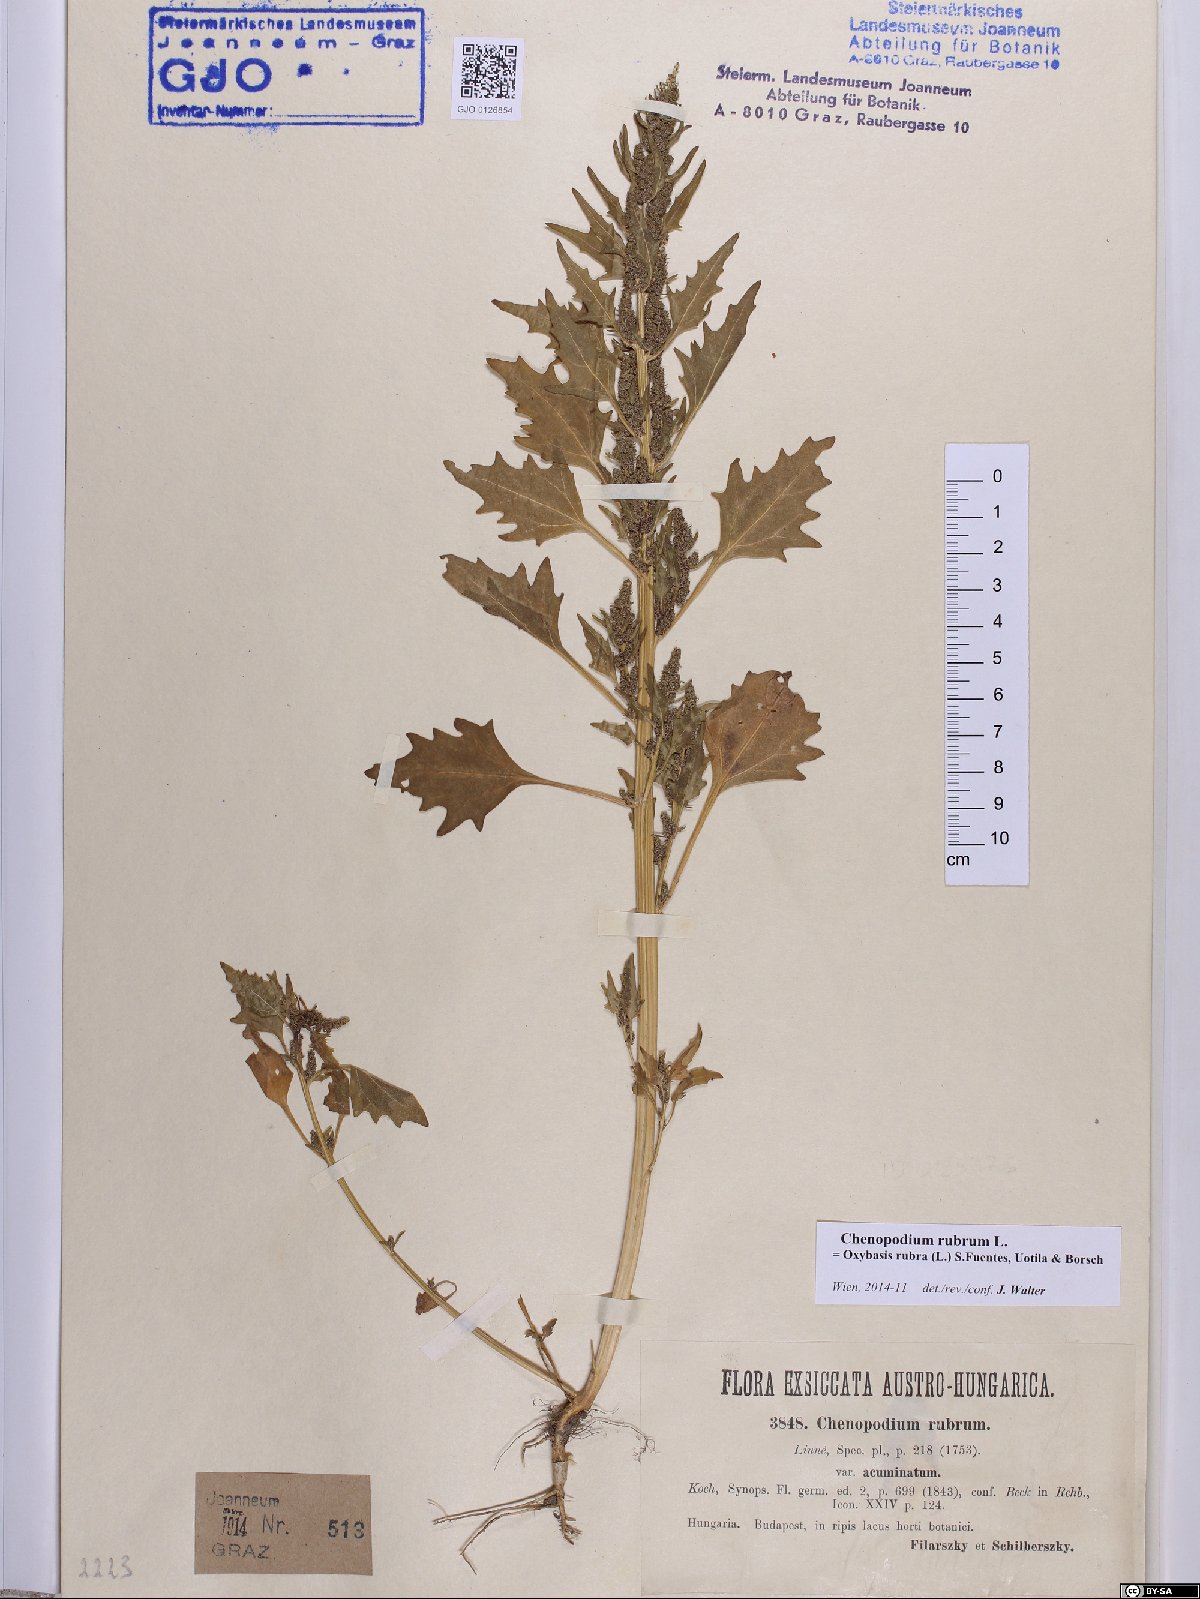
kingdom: Plantae
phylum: Tracheophyta
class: Magnoliopsida
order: Caryophyllales
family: Amaranthaceae
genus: Oxybasis
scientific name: Oxybasis rubra
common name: Red goosefoot
